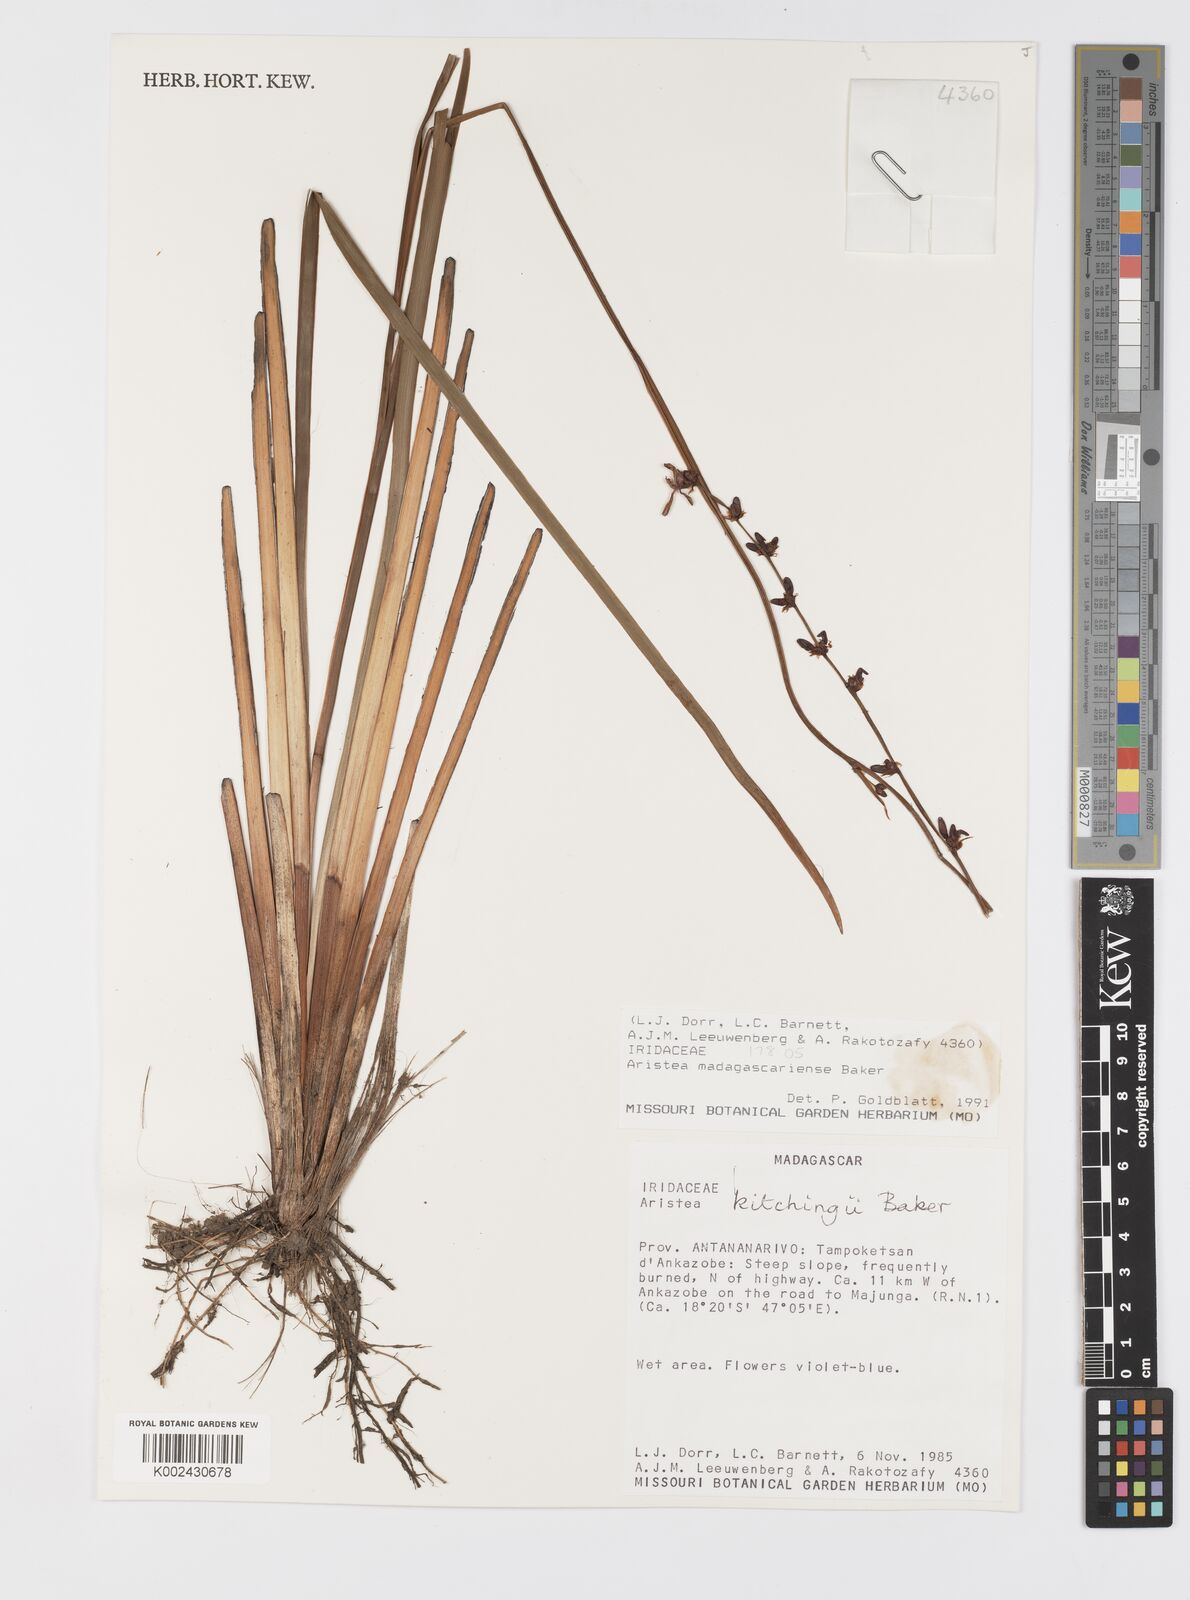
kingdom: Plantae
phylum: Tracheophyta
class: Liliopsida
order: Asparagales
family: Iridaceae
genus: Aristea
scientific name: Aristea madagascariensis
